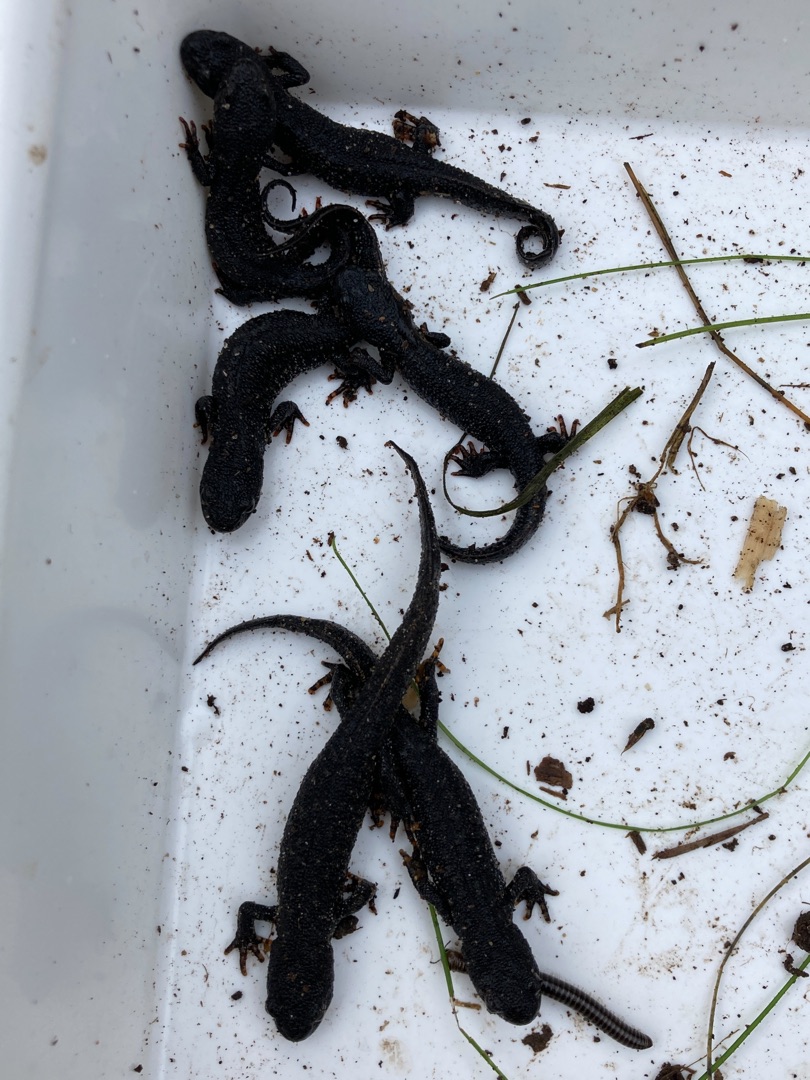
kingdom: Animalia
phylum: Chordata
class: Amphibia
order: Caudata
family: Salamandridae
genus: Triturus
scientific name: Triturus cristatus
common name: Stor vandsalamander
